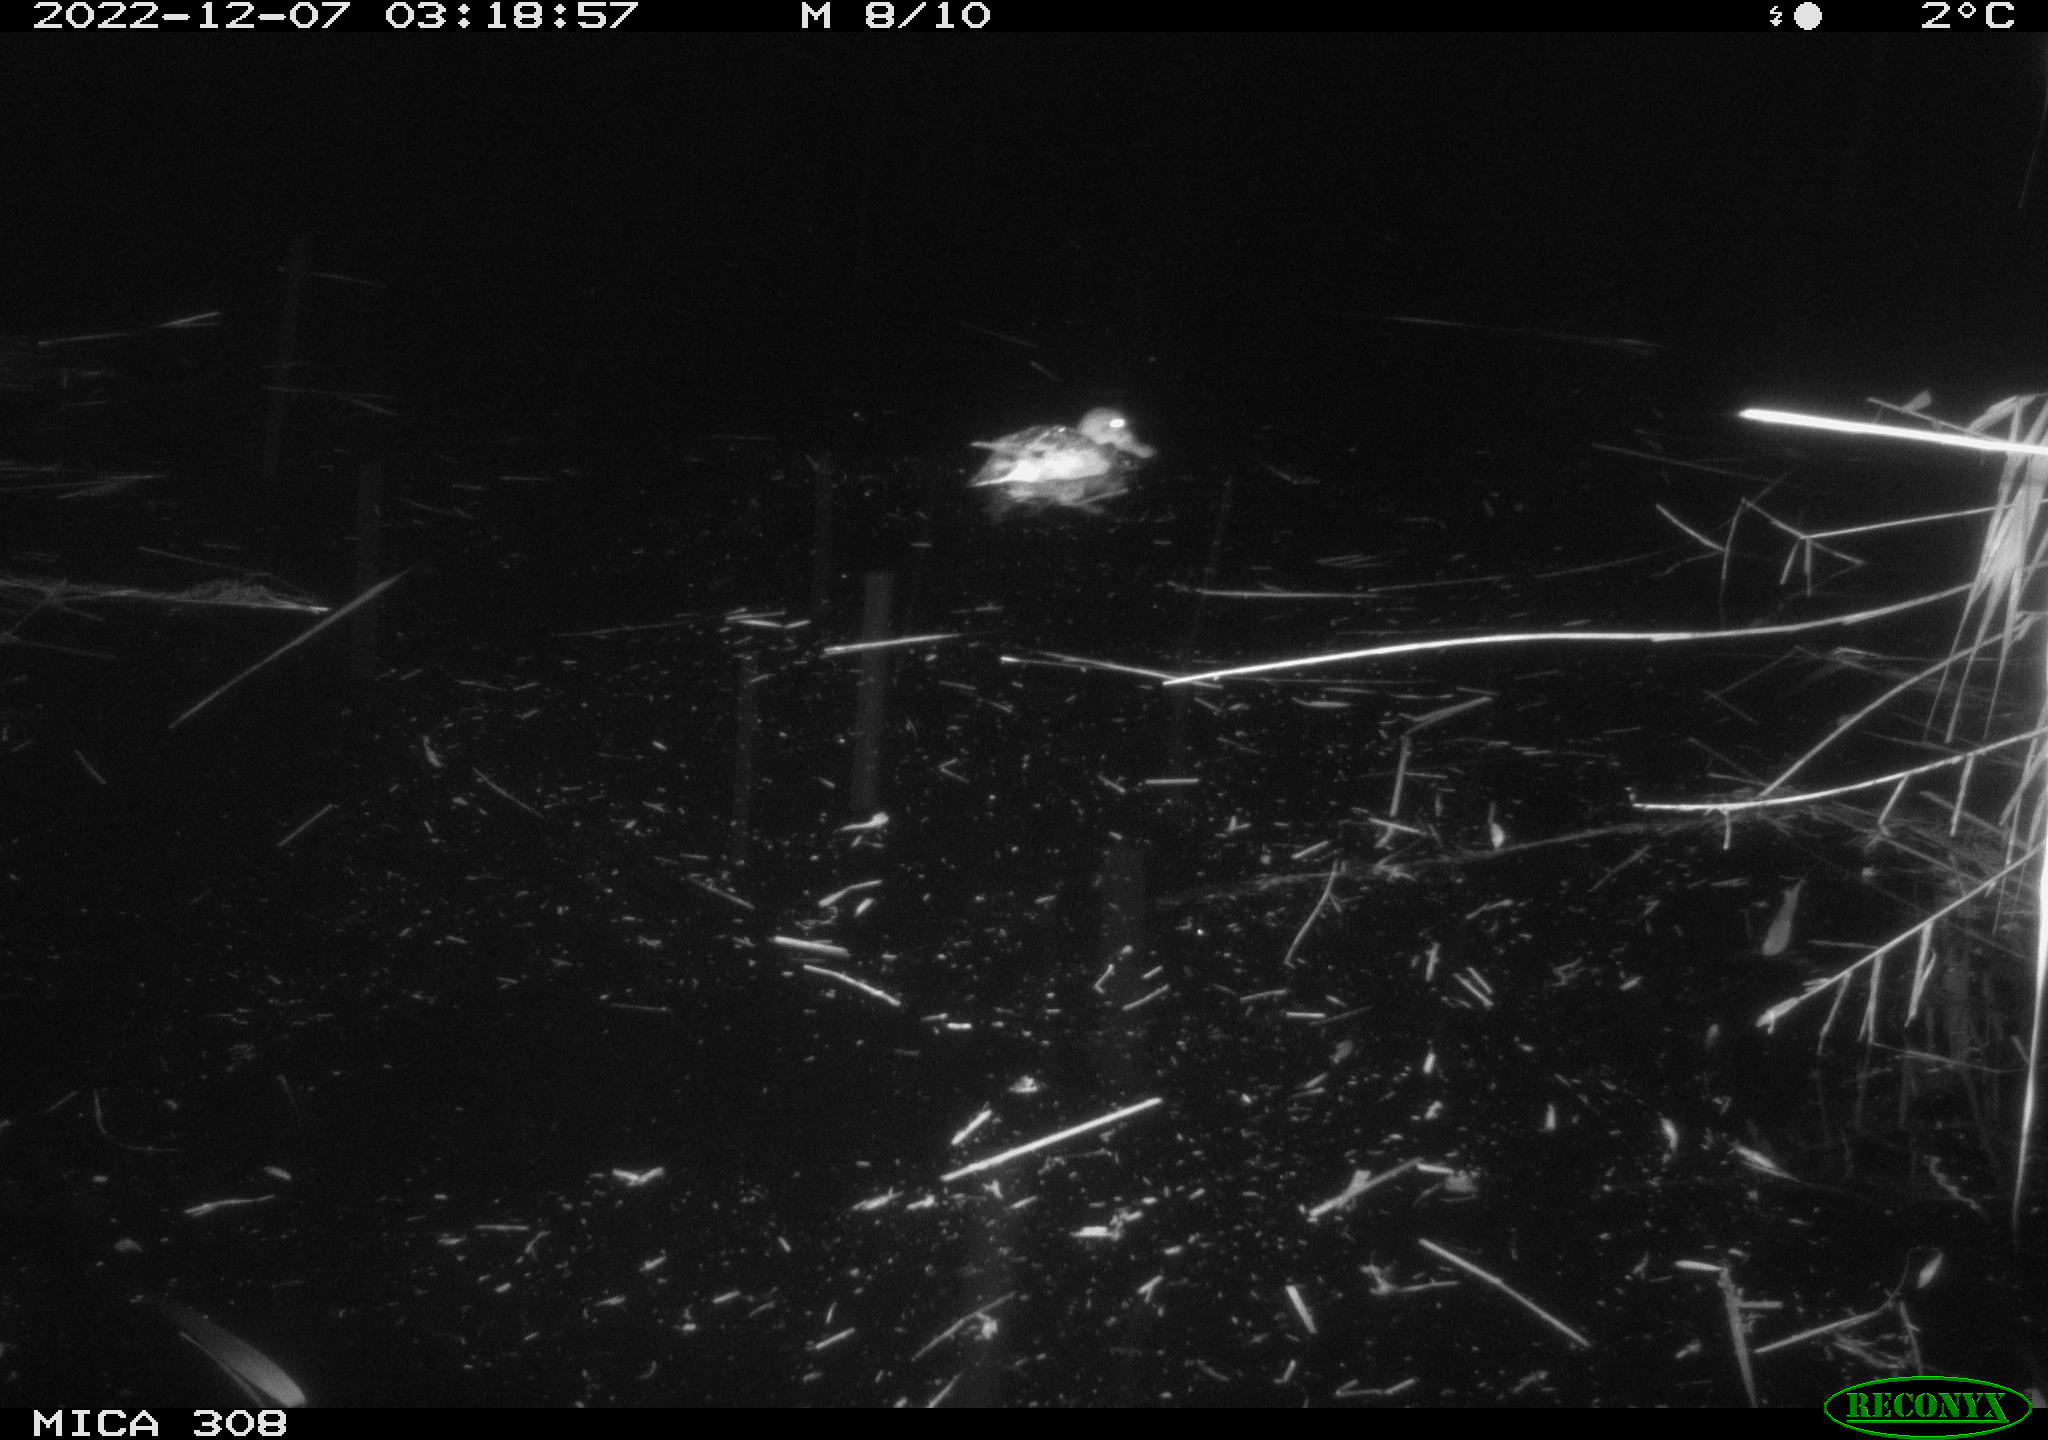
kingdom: Animalia
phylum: Chordata
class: Aves
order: Anseriformes
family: Anatidae
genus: Anas
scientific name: Anas
